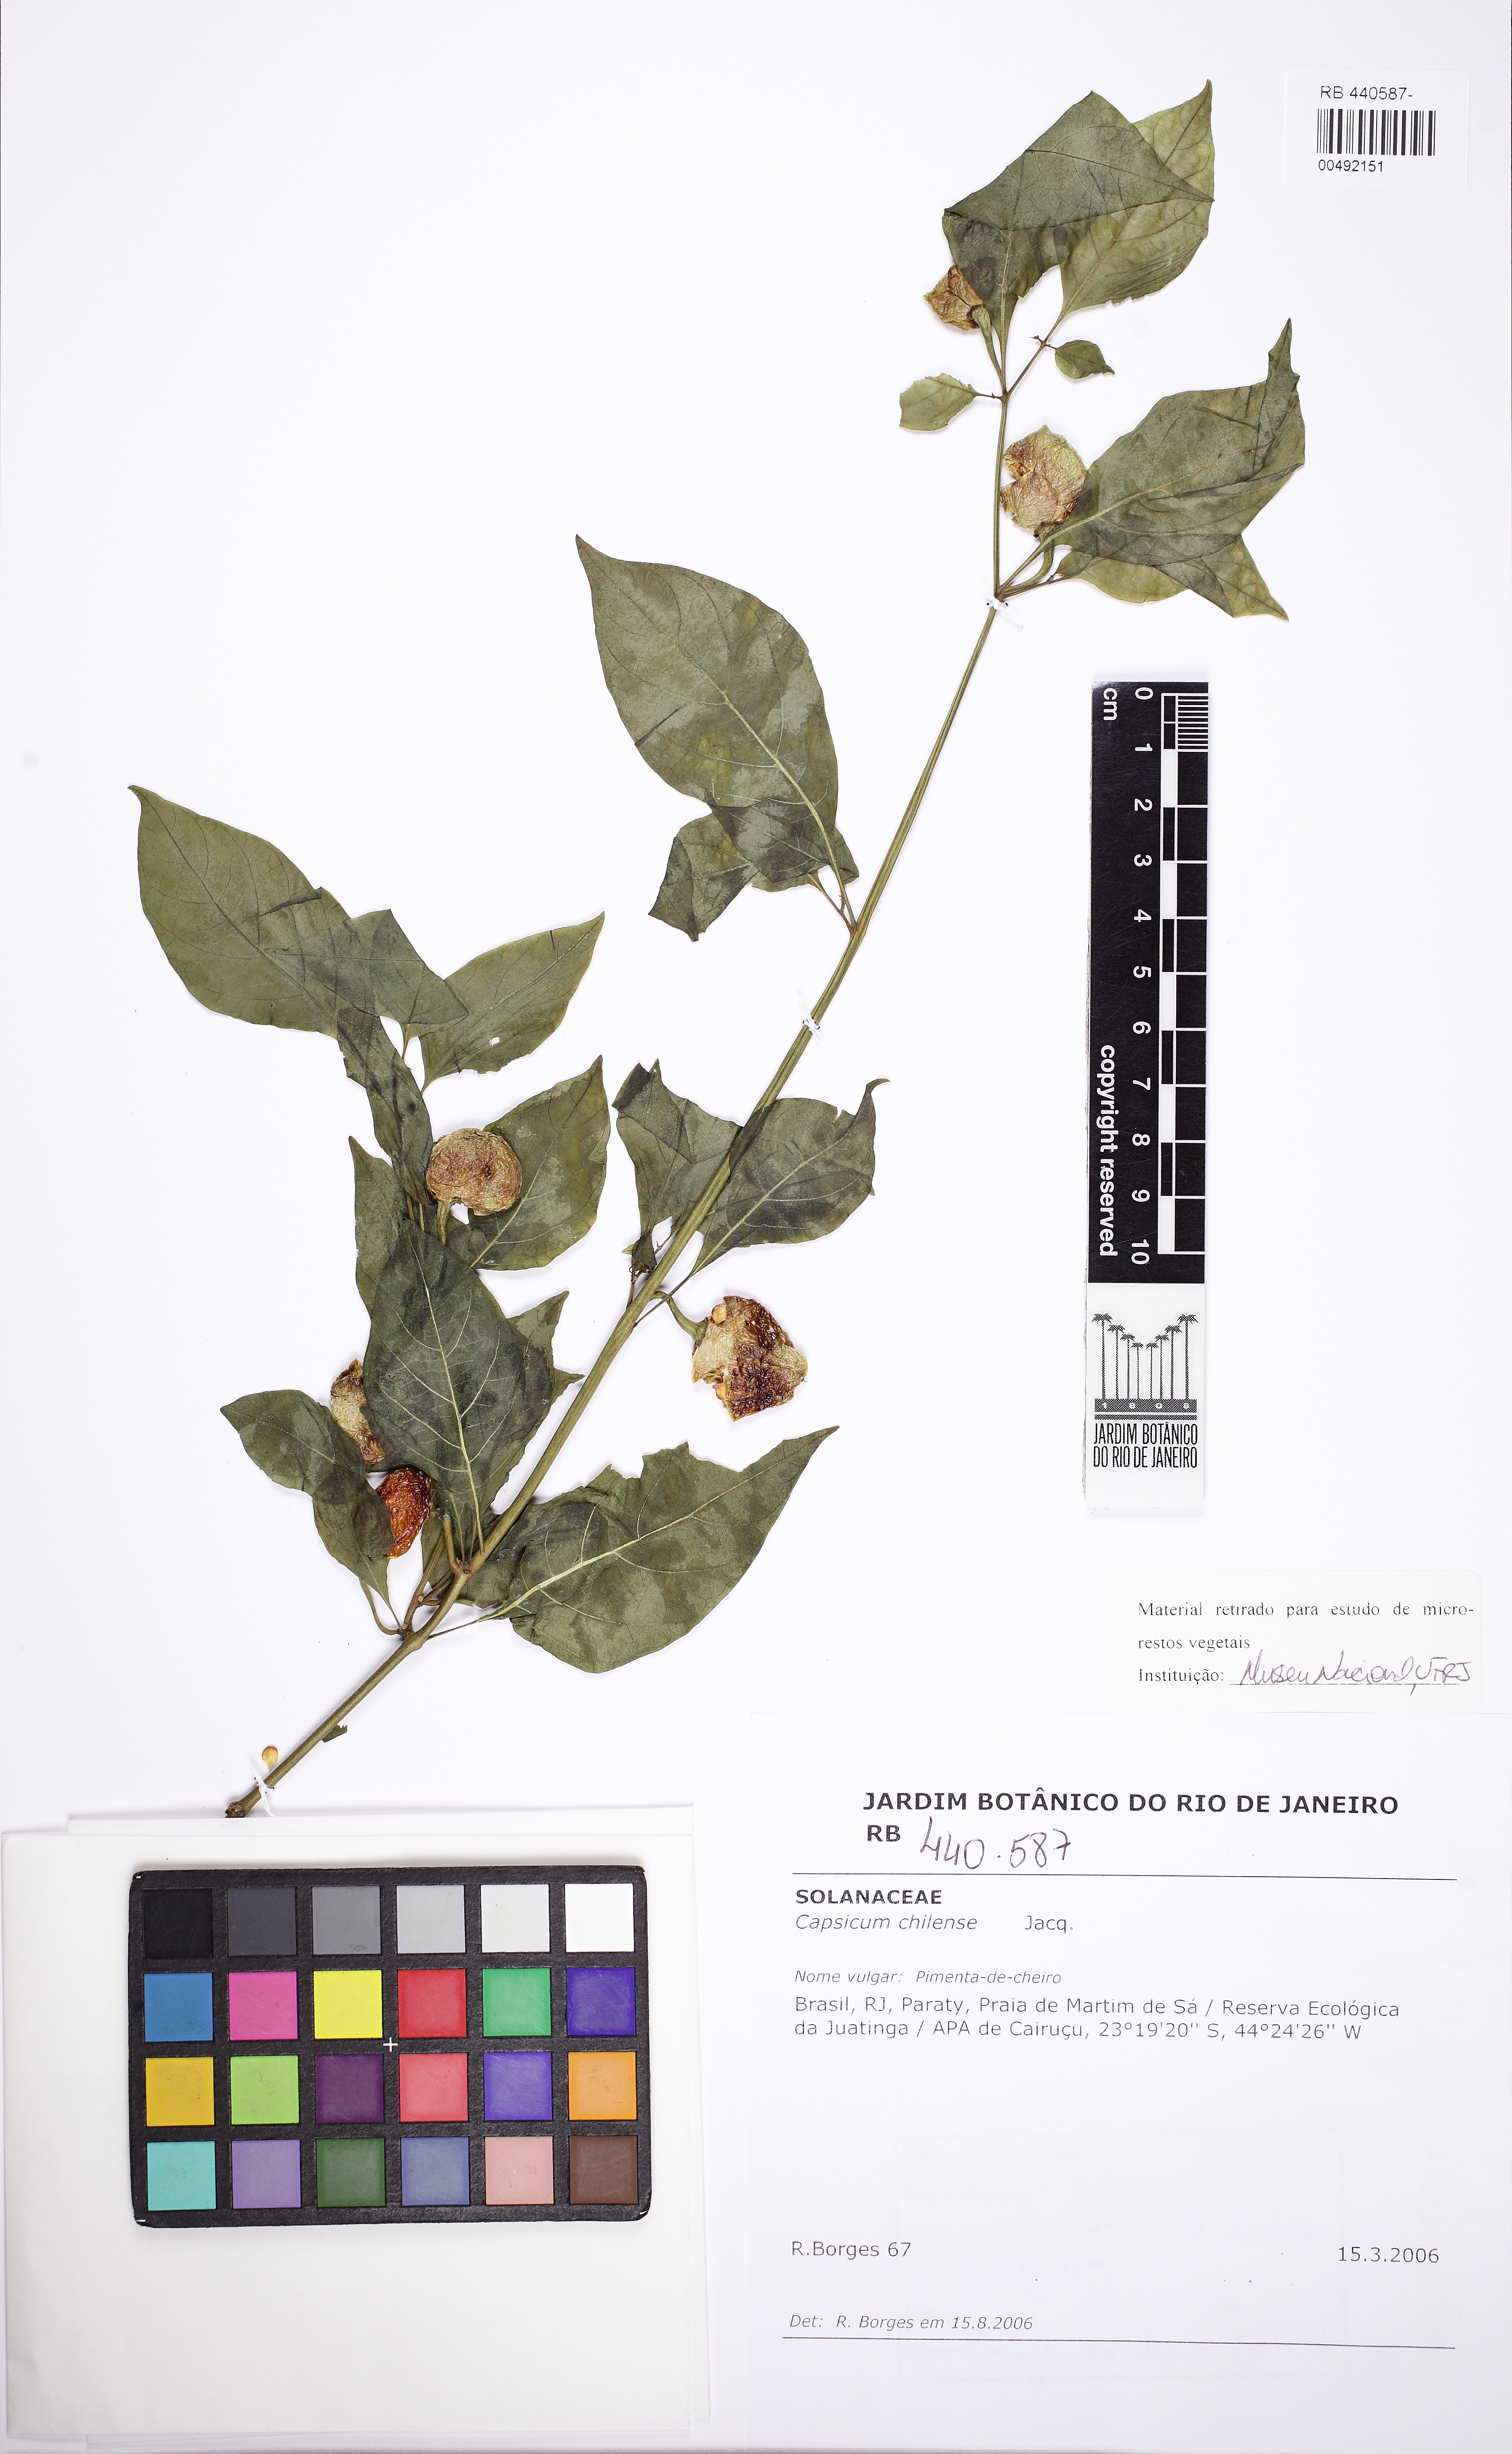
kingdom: Plantae
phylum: Tracheophyta
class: Magnoliopsida
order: Solanales
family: Solanaceae
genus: Capsicum
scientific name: Capsicum chinense
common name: Yellow squash pepper
